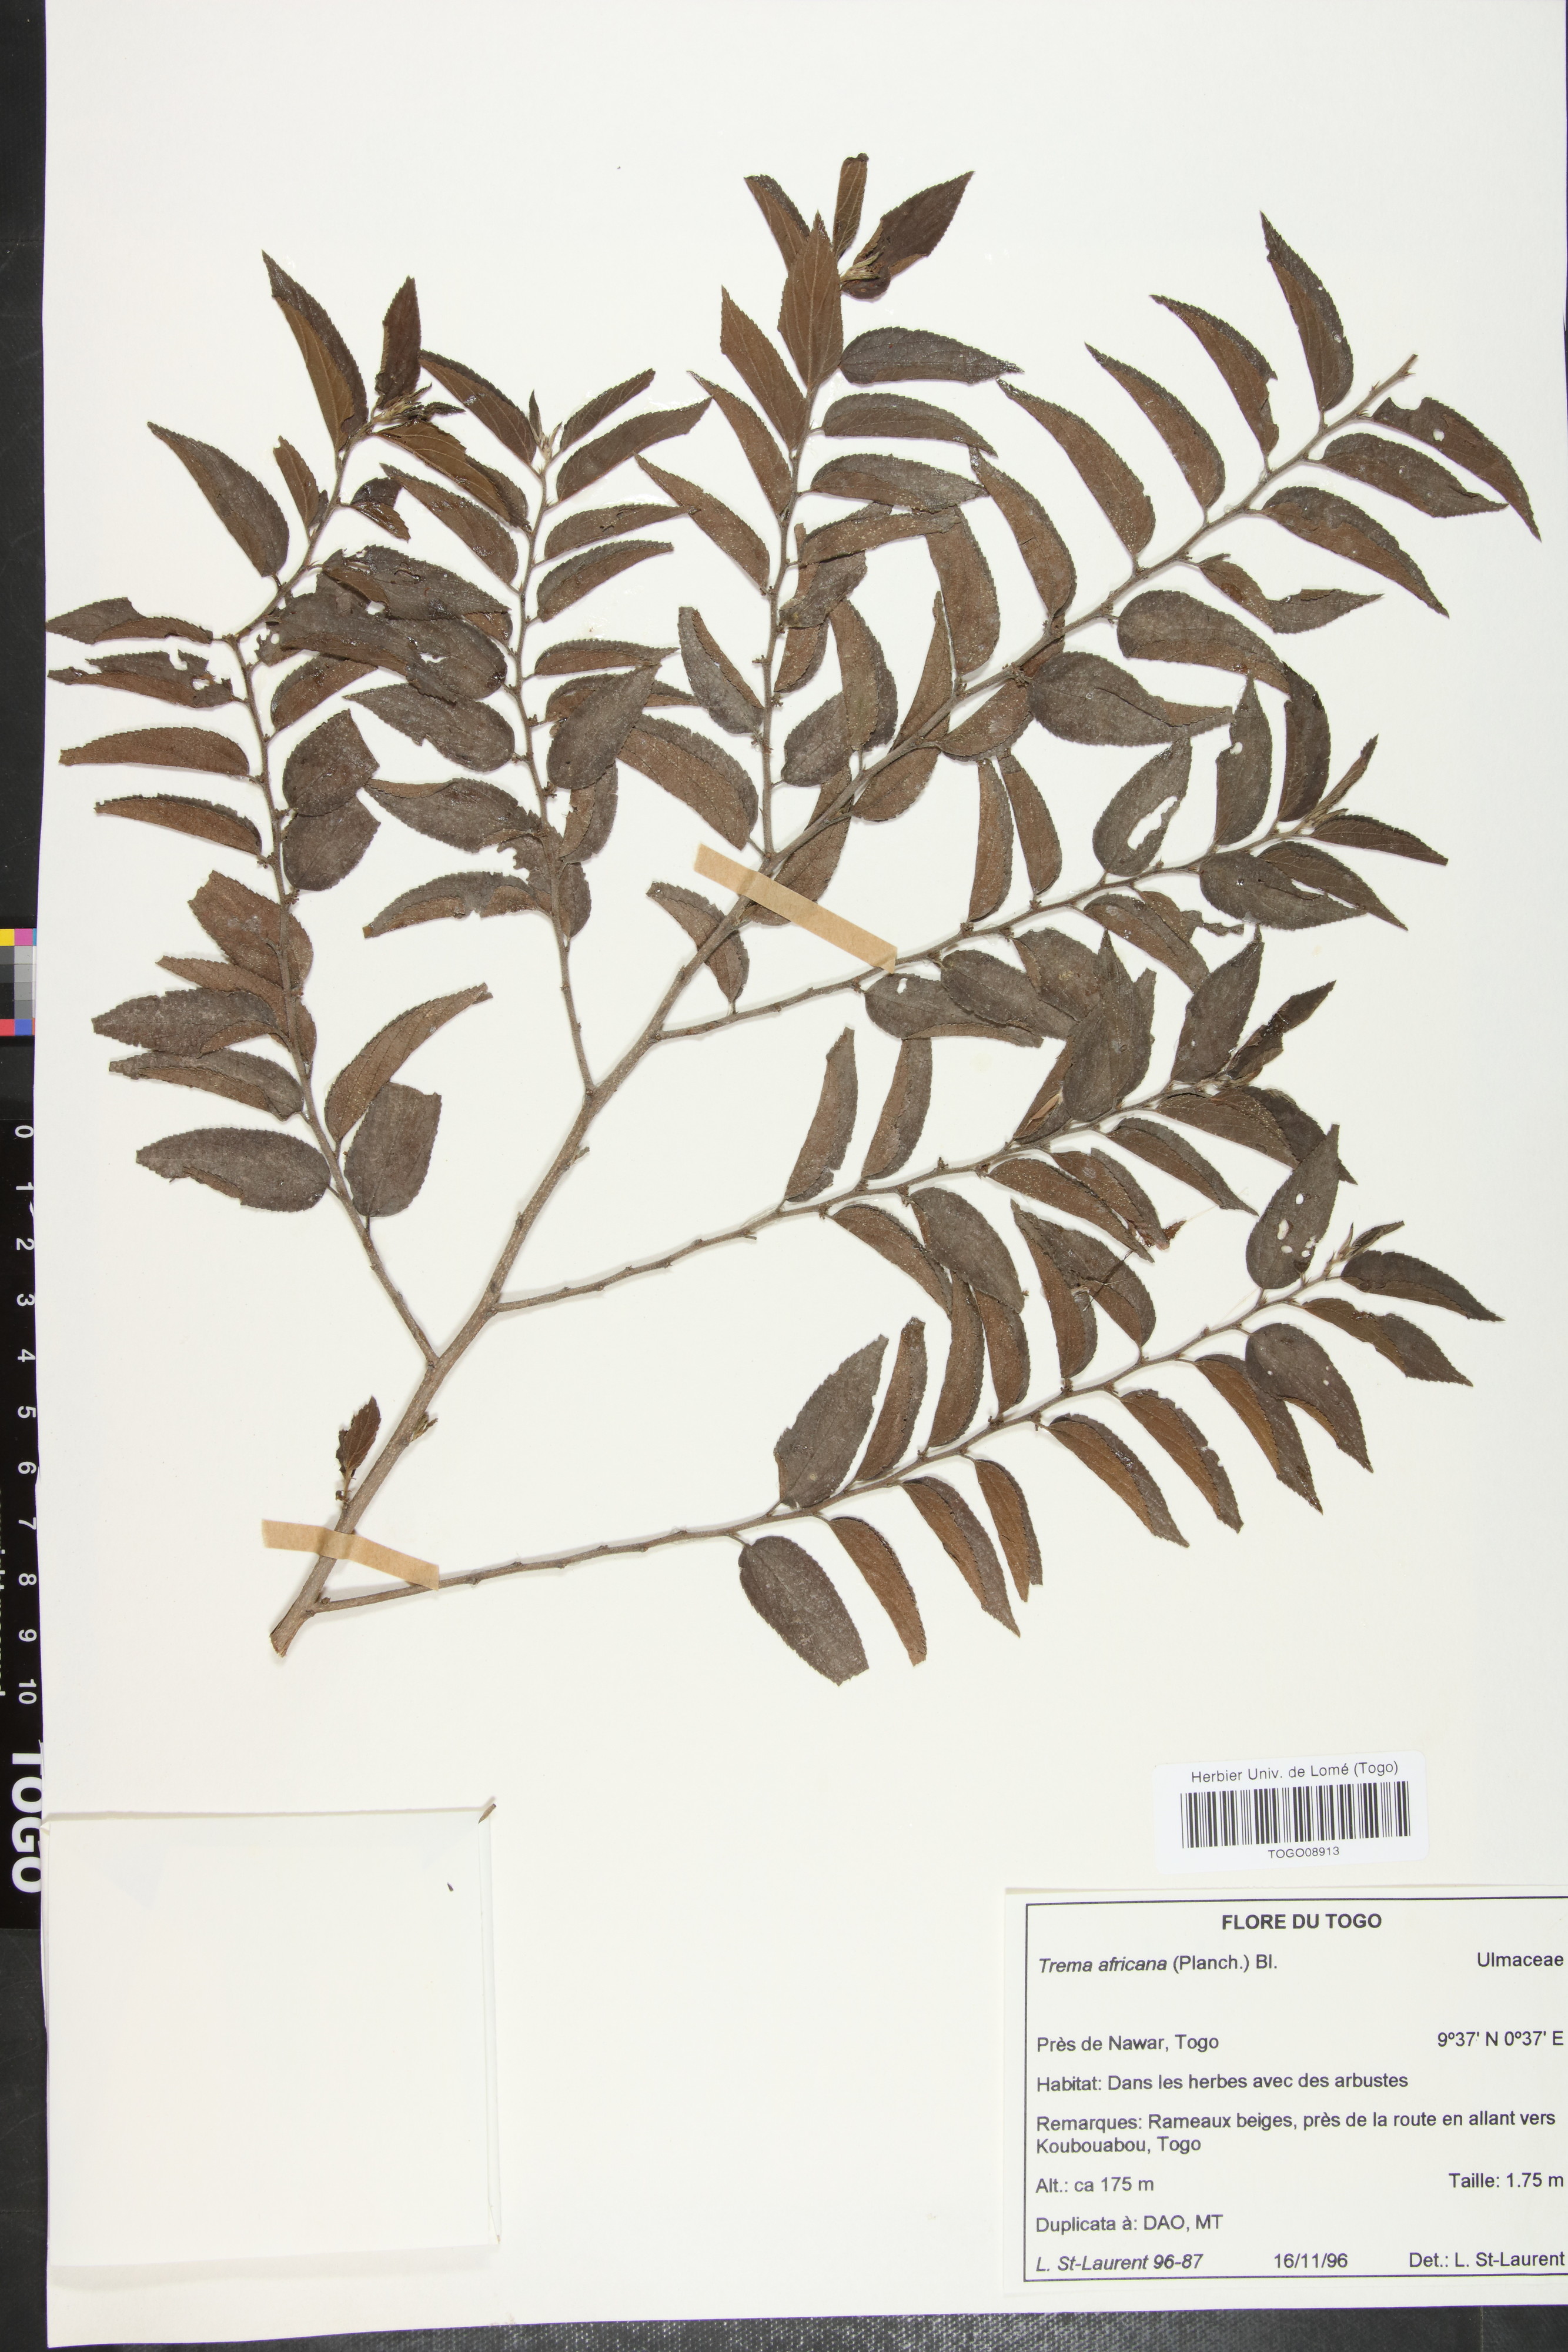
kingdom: Plantae
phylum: Tracheophyta
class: Magnoliopsida
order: Rosales
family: Cannabaceae
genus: Trema
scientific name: Trema orientale
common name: Indian charcoal tree
